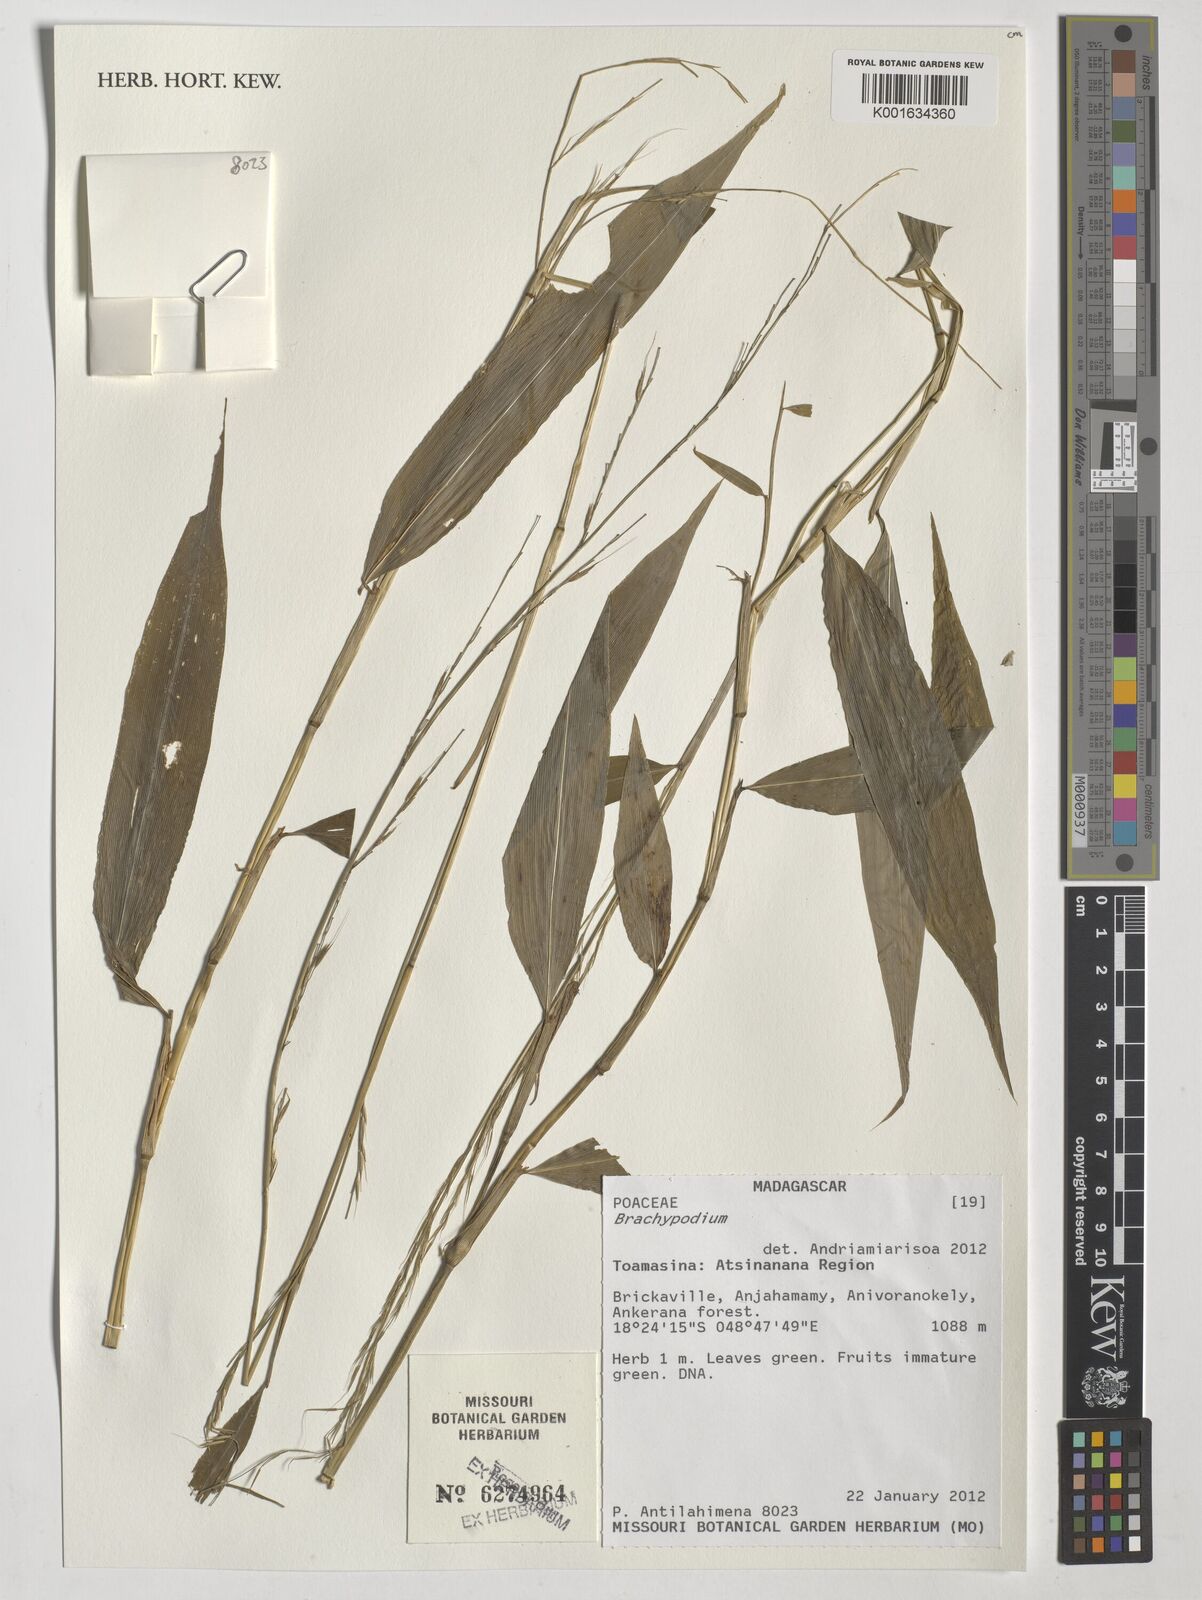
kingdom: Plantae
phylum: Tracheophyta
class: Liliopsida
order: Poales
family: Poaceae
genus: Brachypodium
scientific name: Brachypodium
